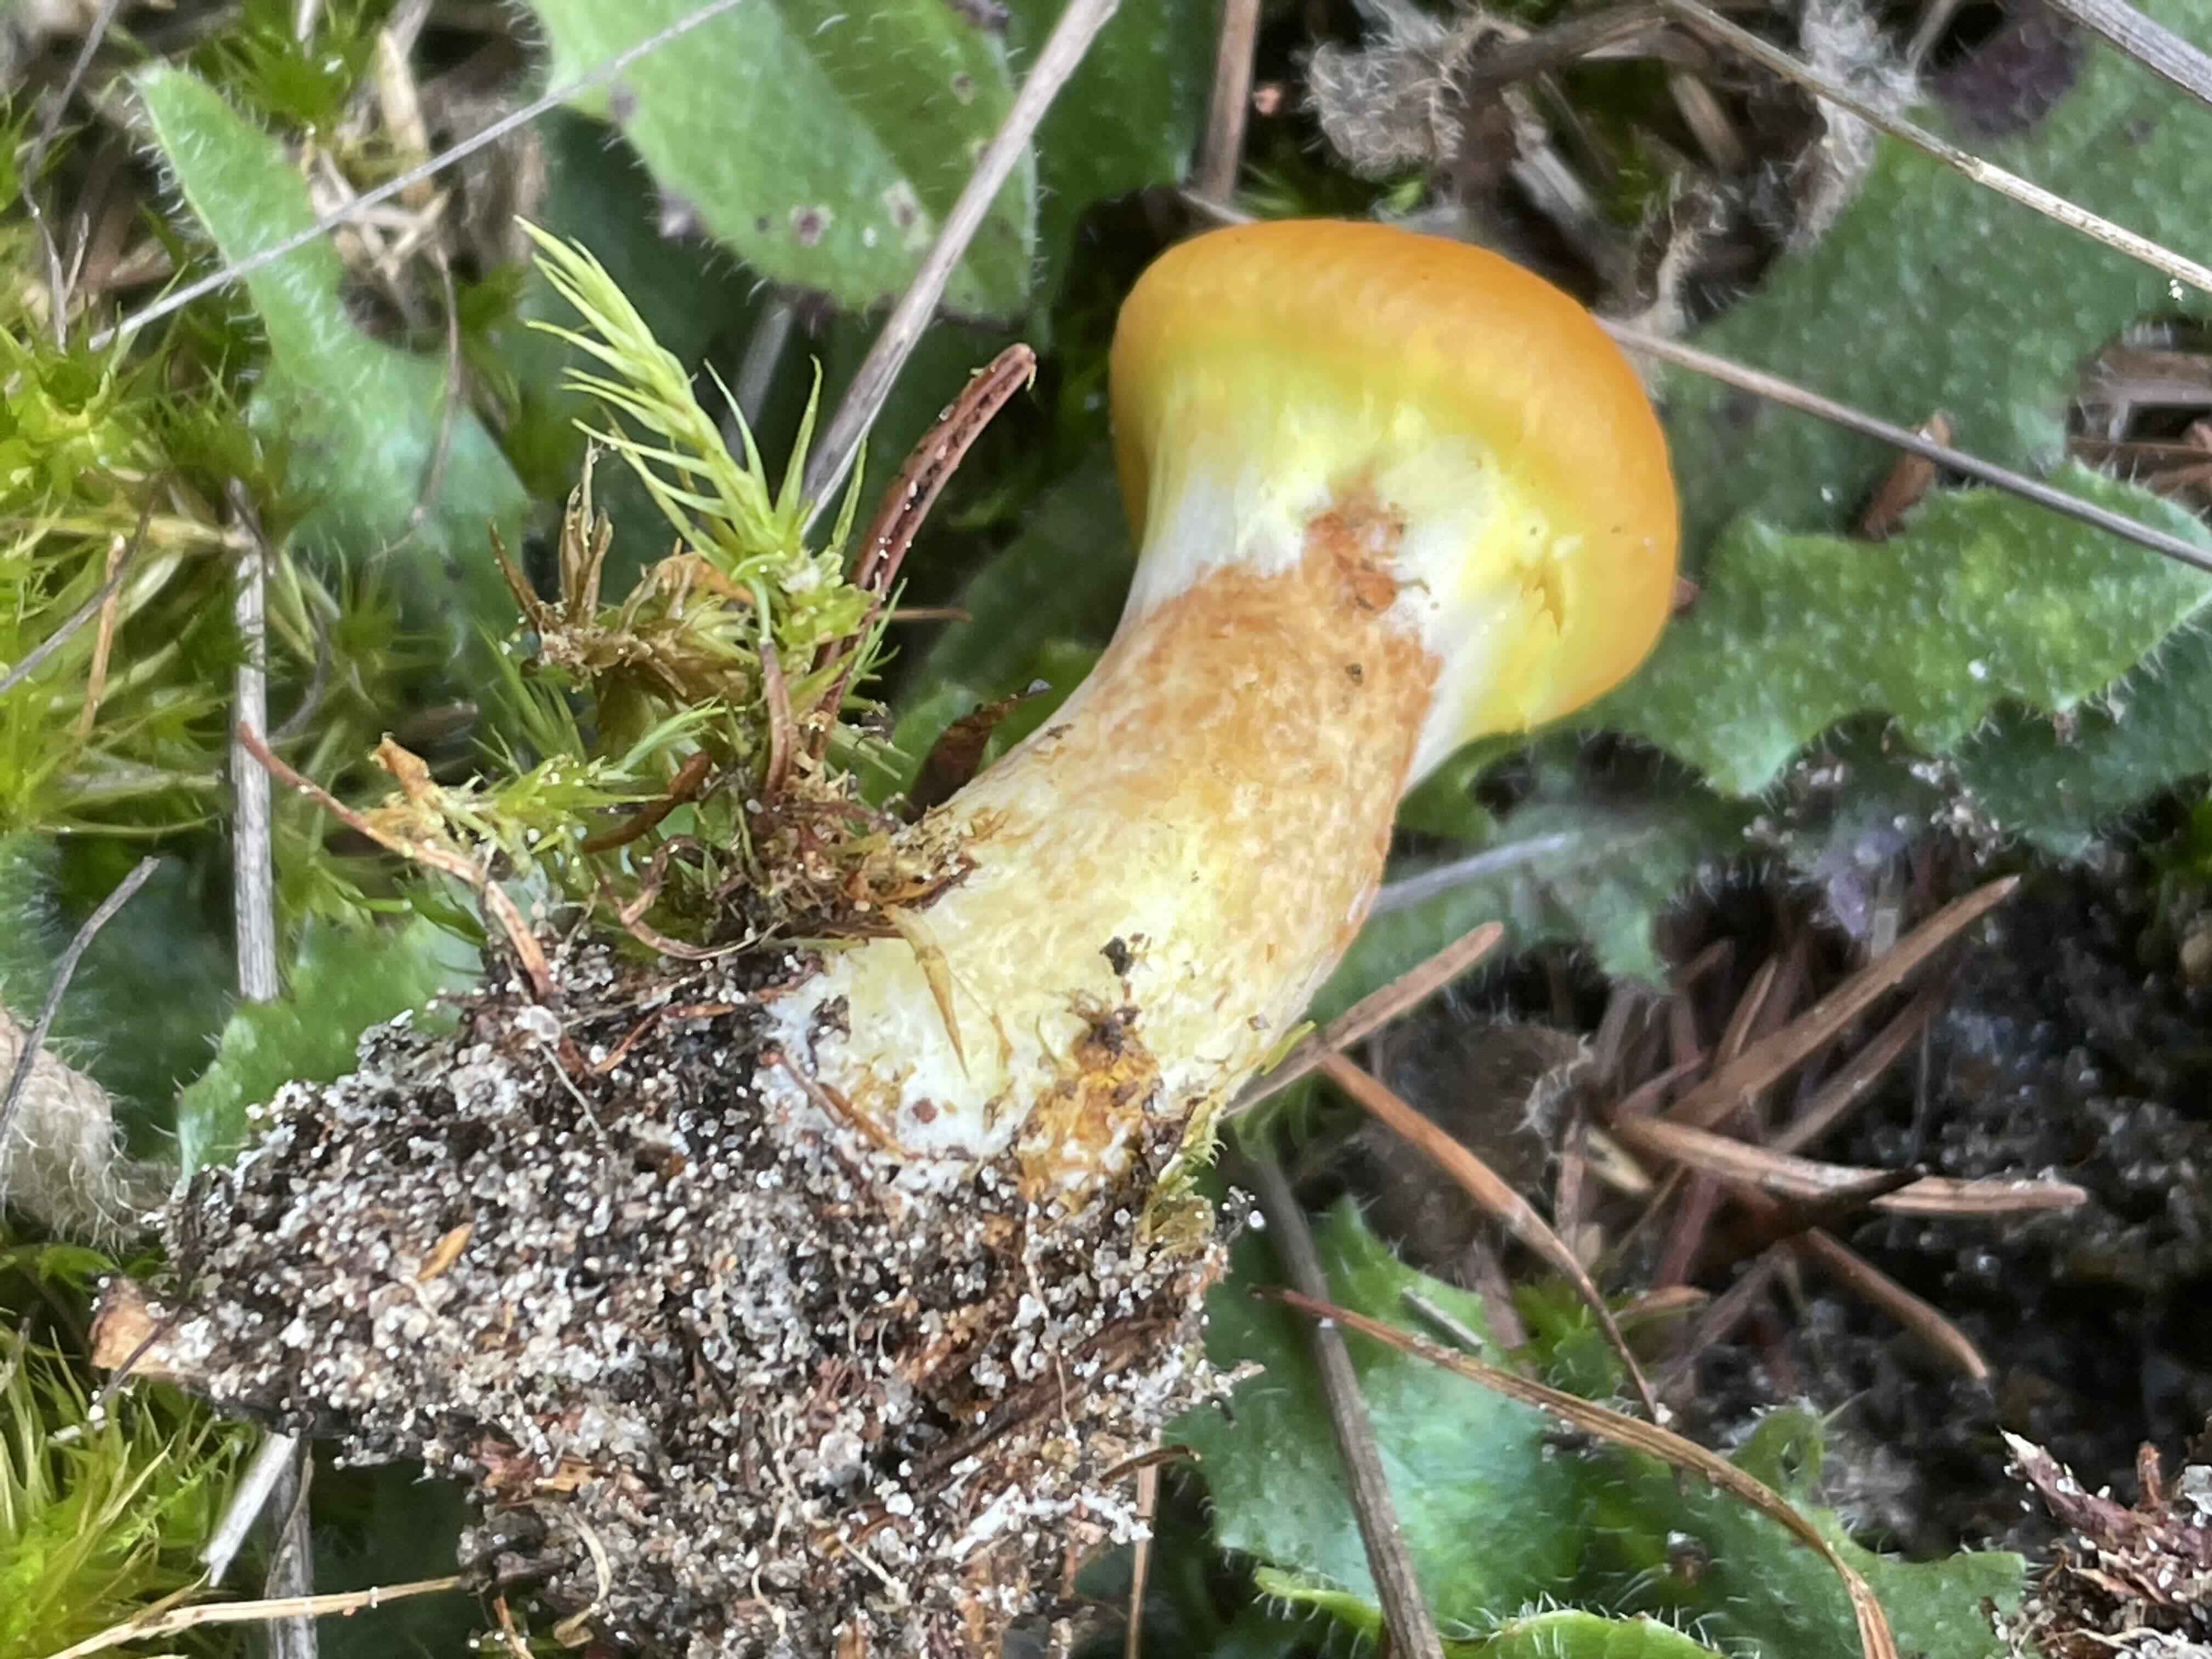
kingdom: Fungi
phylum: Basidiomycota
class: Agaricomycetes
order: Boletales
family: Suillaceae
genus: Suillus
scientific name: Suillus grevillei
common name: lærke-slimrørhat
